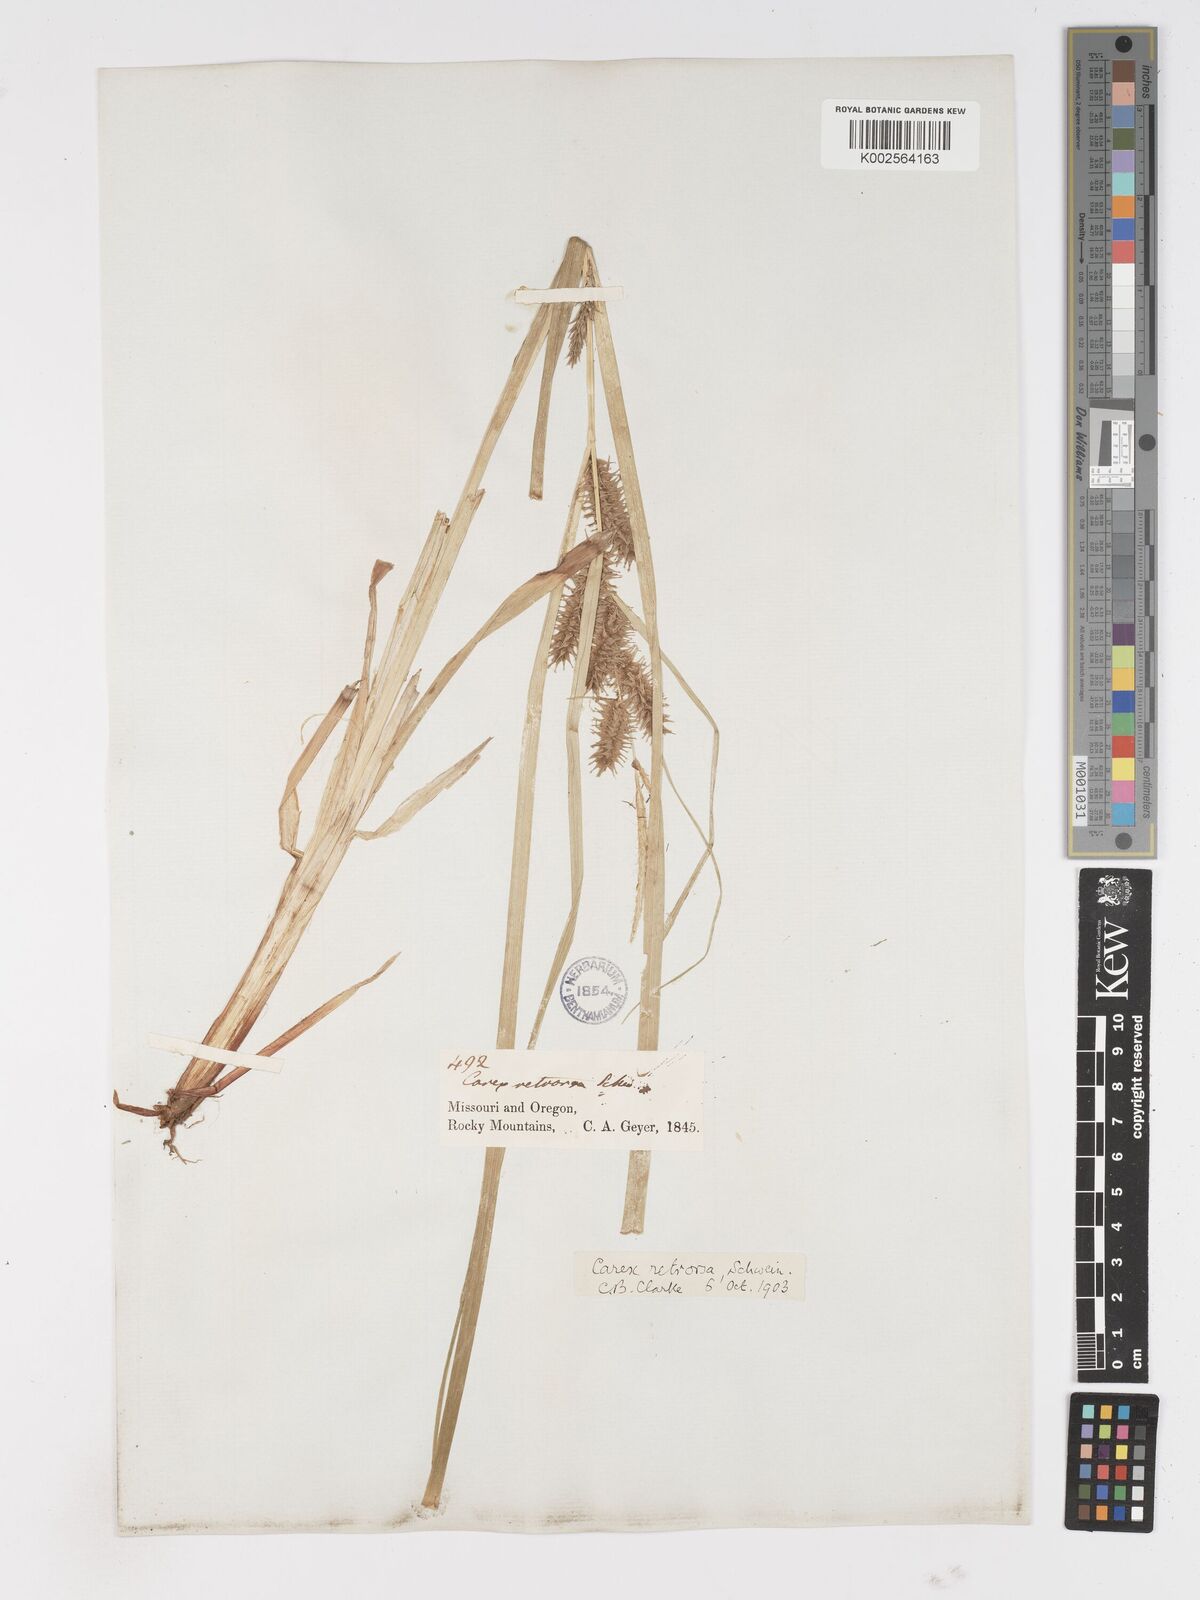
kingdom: Plantae
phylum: Tracheophyta
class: Liliopsida
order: Poales
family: Cyperaceae
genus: Carex
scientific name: Carex retrorsa
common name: Knot-sheath sedge
